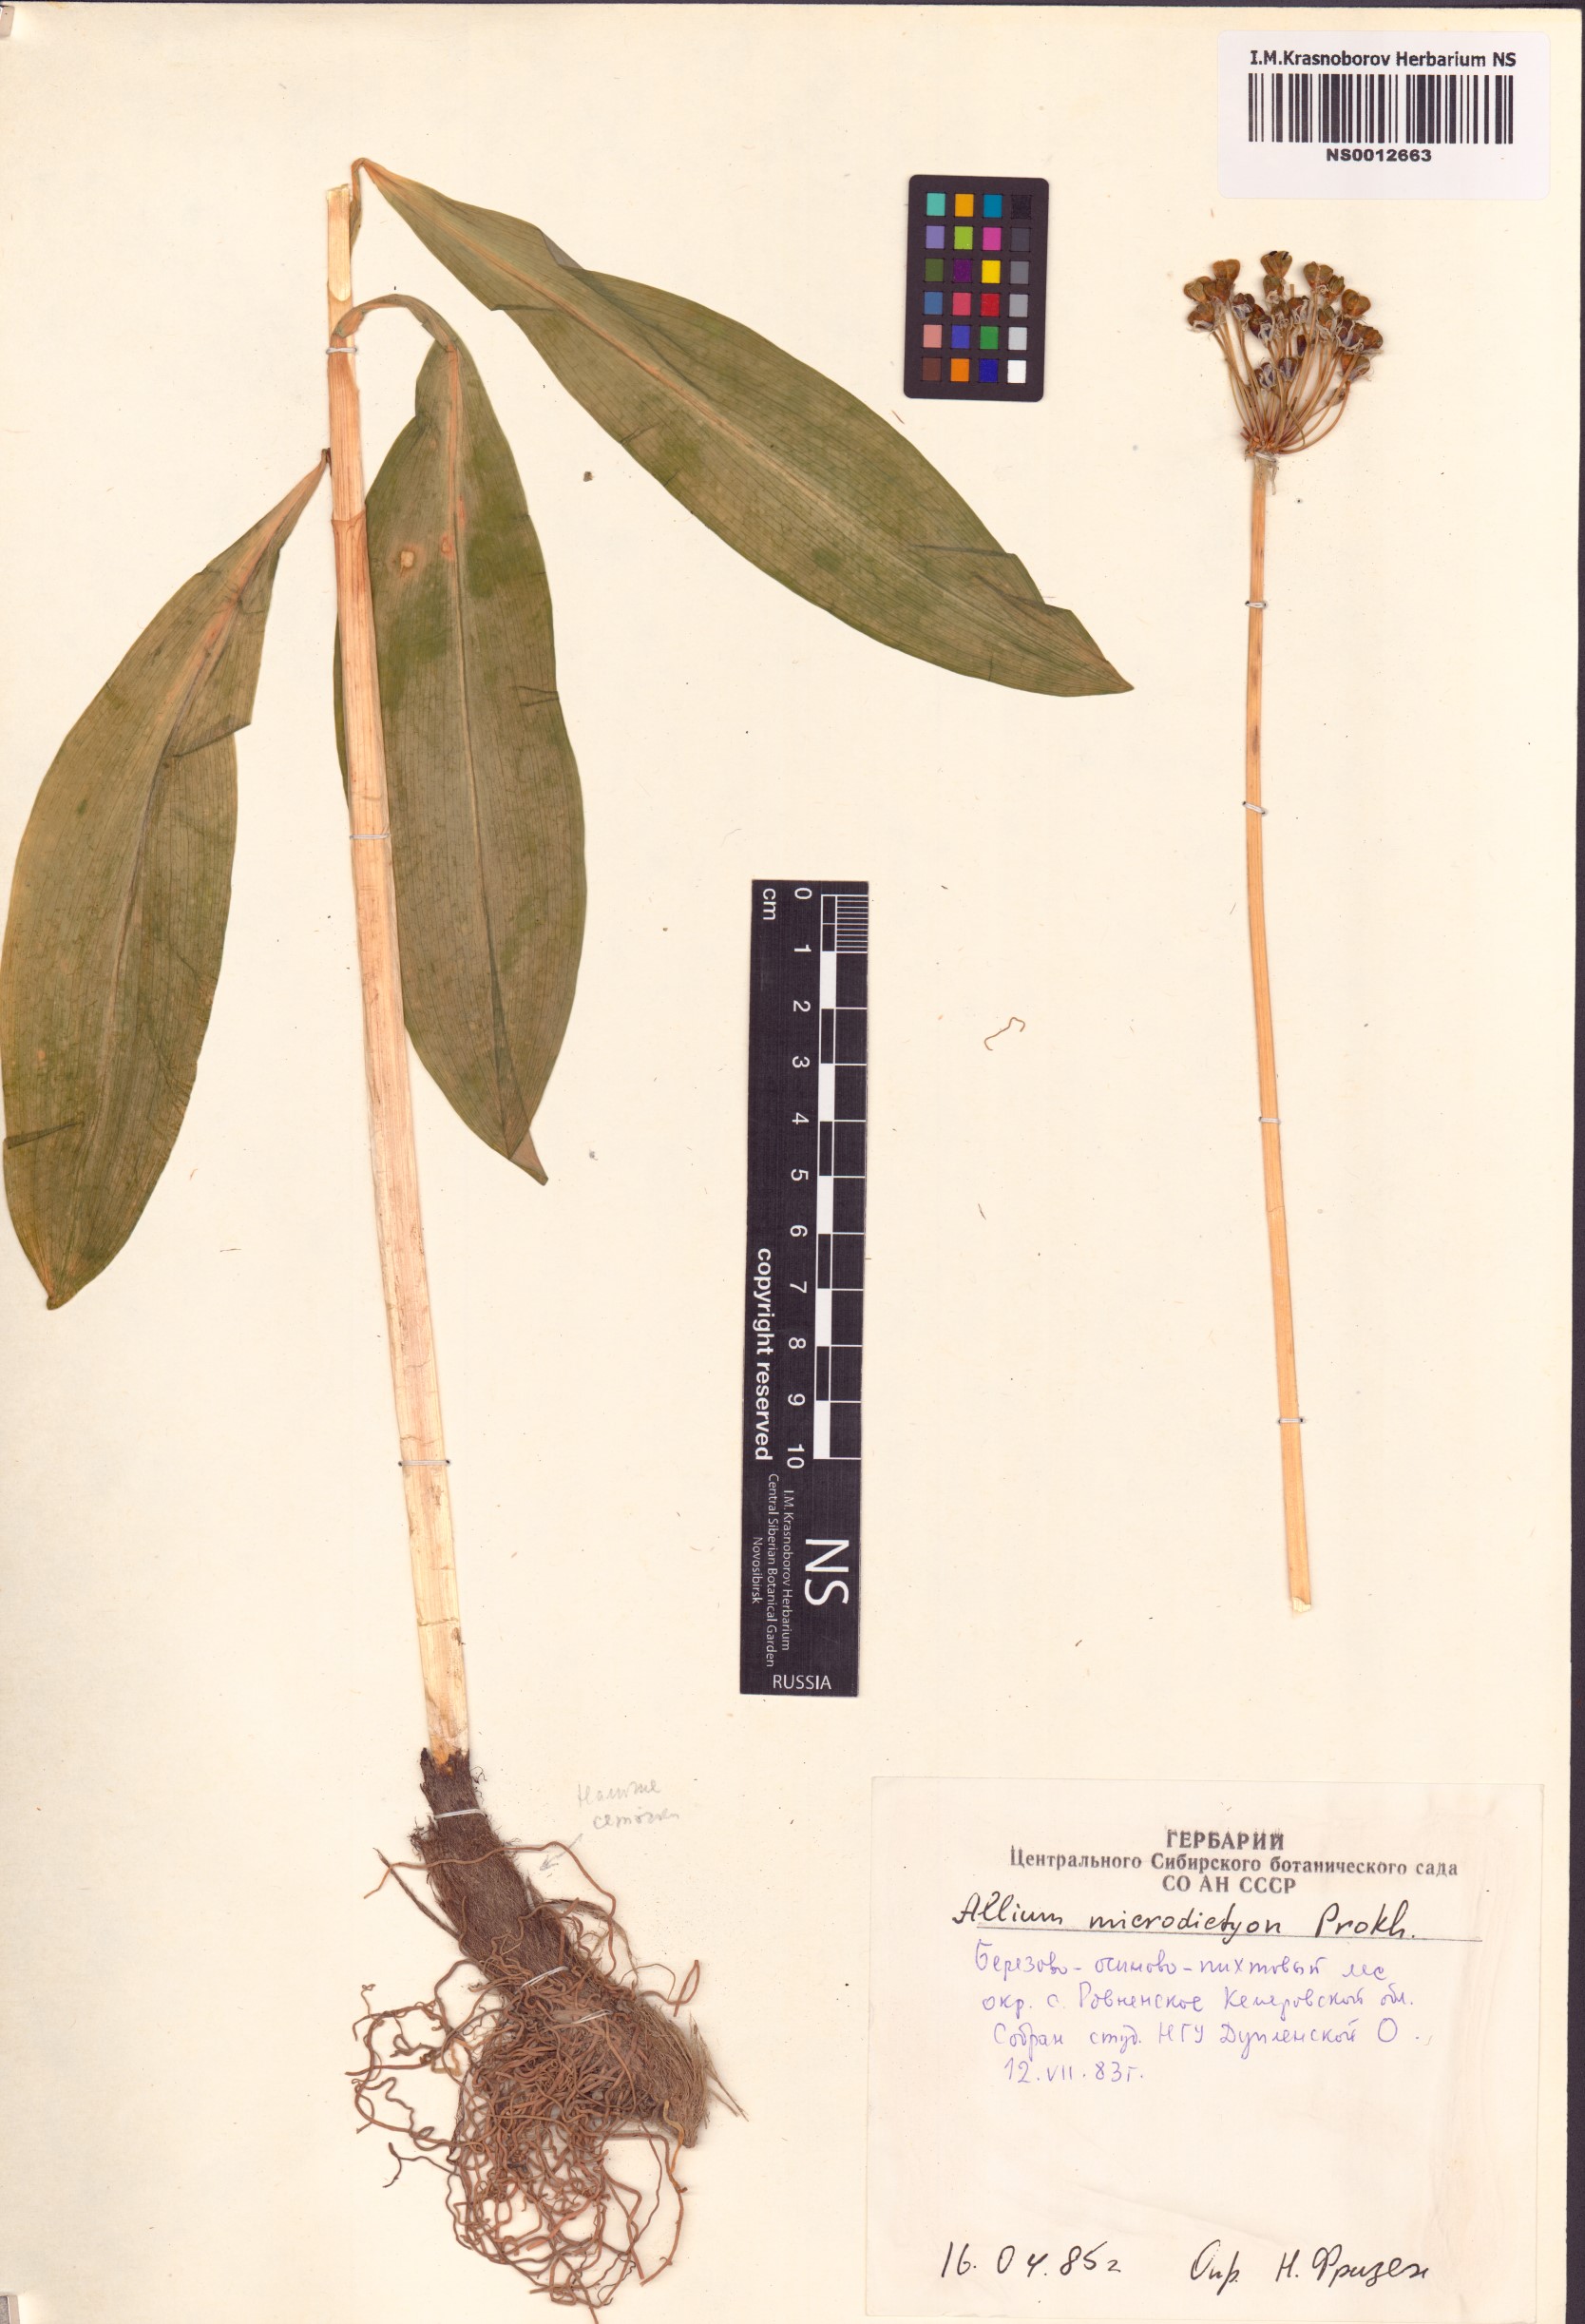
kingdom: Plantae
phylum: Tracheophyta
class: Liliopsida
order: Asparagales
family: Amaryllidaceae
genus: Allium
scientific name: Allium microdictyon
